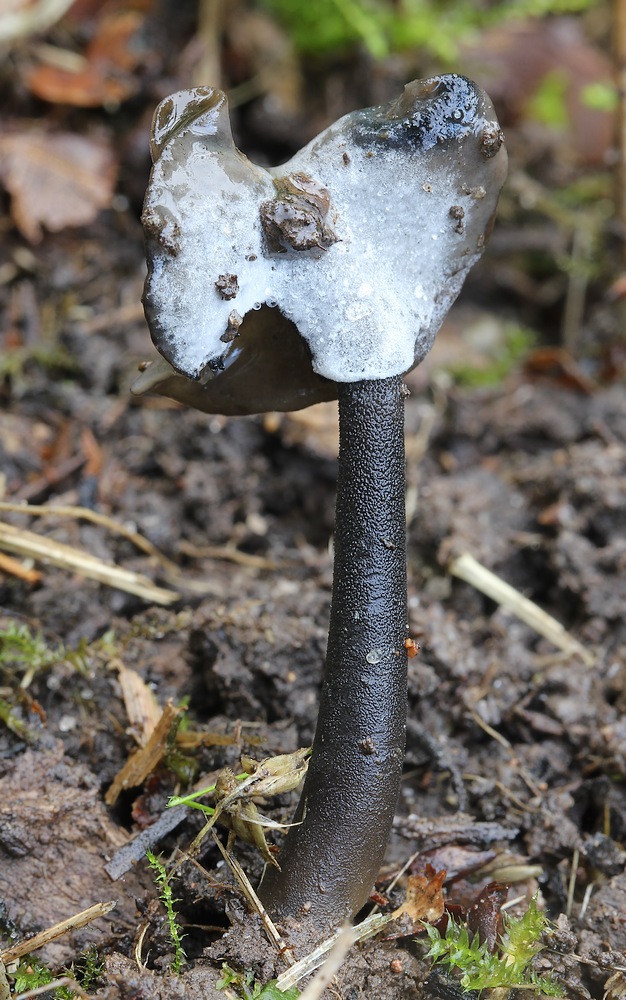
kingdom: Fungi
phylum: Ascomycota
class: Sordariomycetes
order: Hypocreales
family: Hypocreaceae
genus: Hypomyces
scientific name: Hypomyces cervinus
